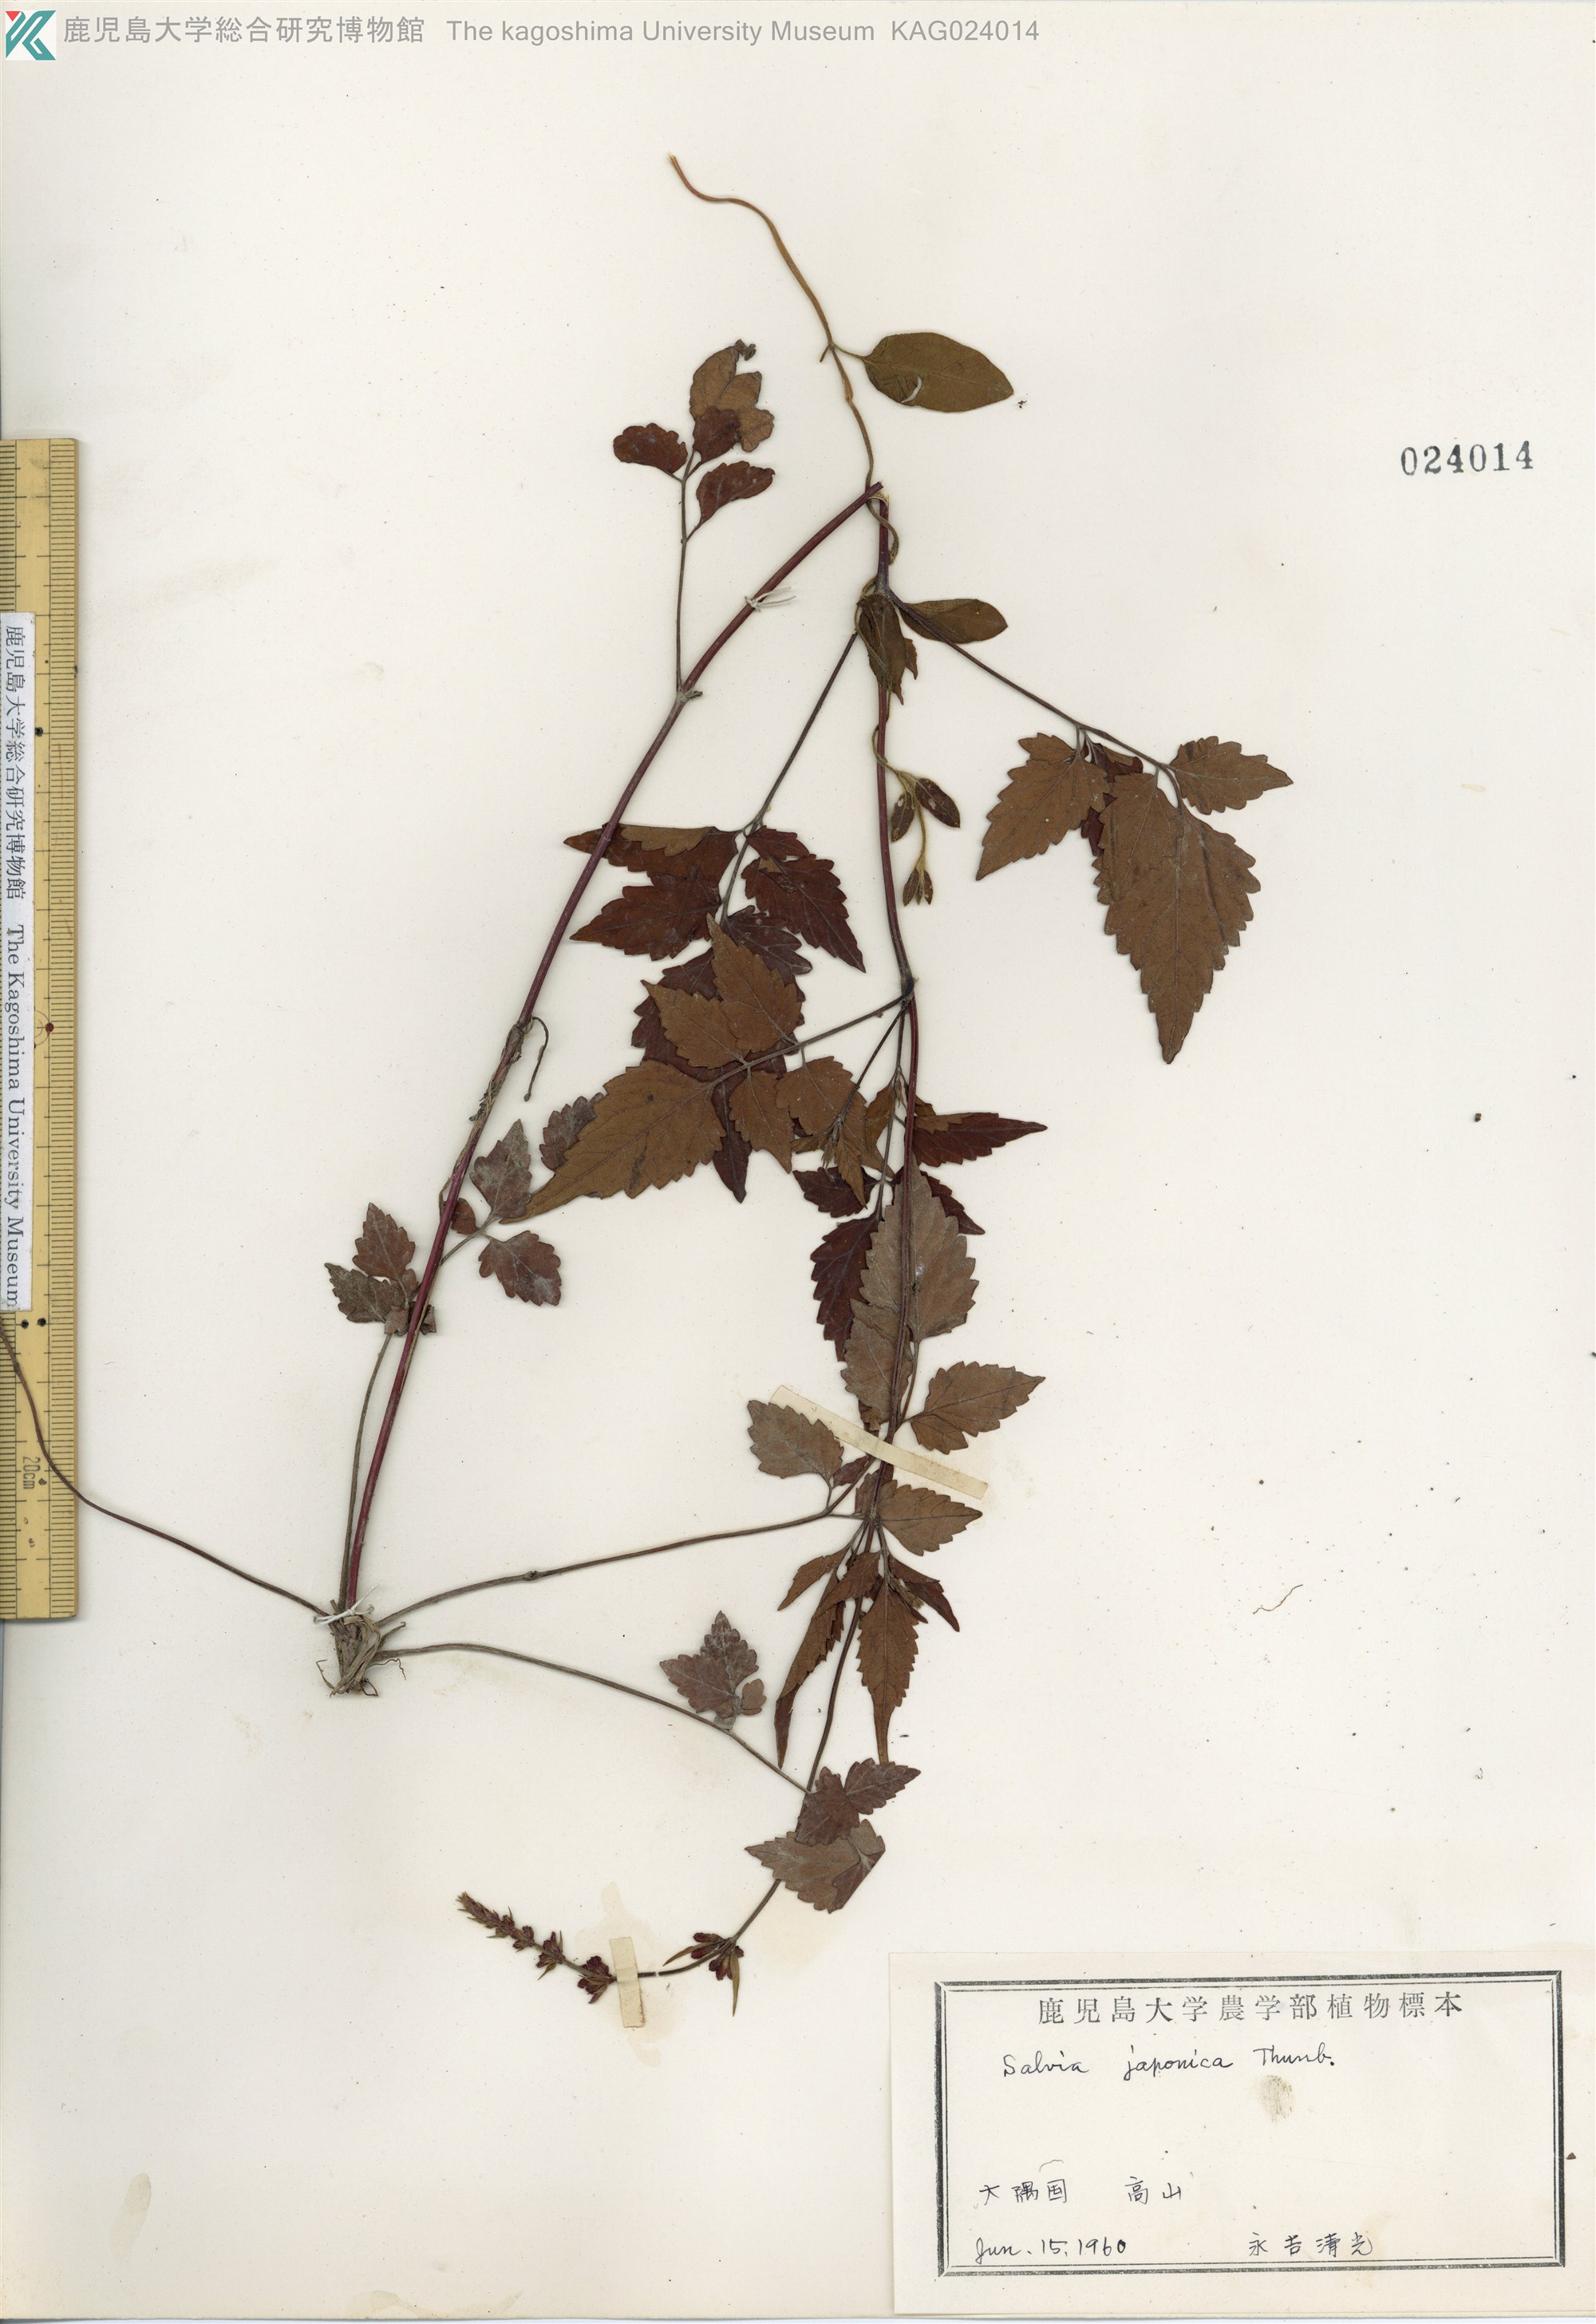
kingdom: Plantae
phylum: Tracheophyta
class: Magnoliopsida
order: Lamiales
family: Lamiaceae
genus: Salvia
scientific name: Salvia japonica
